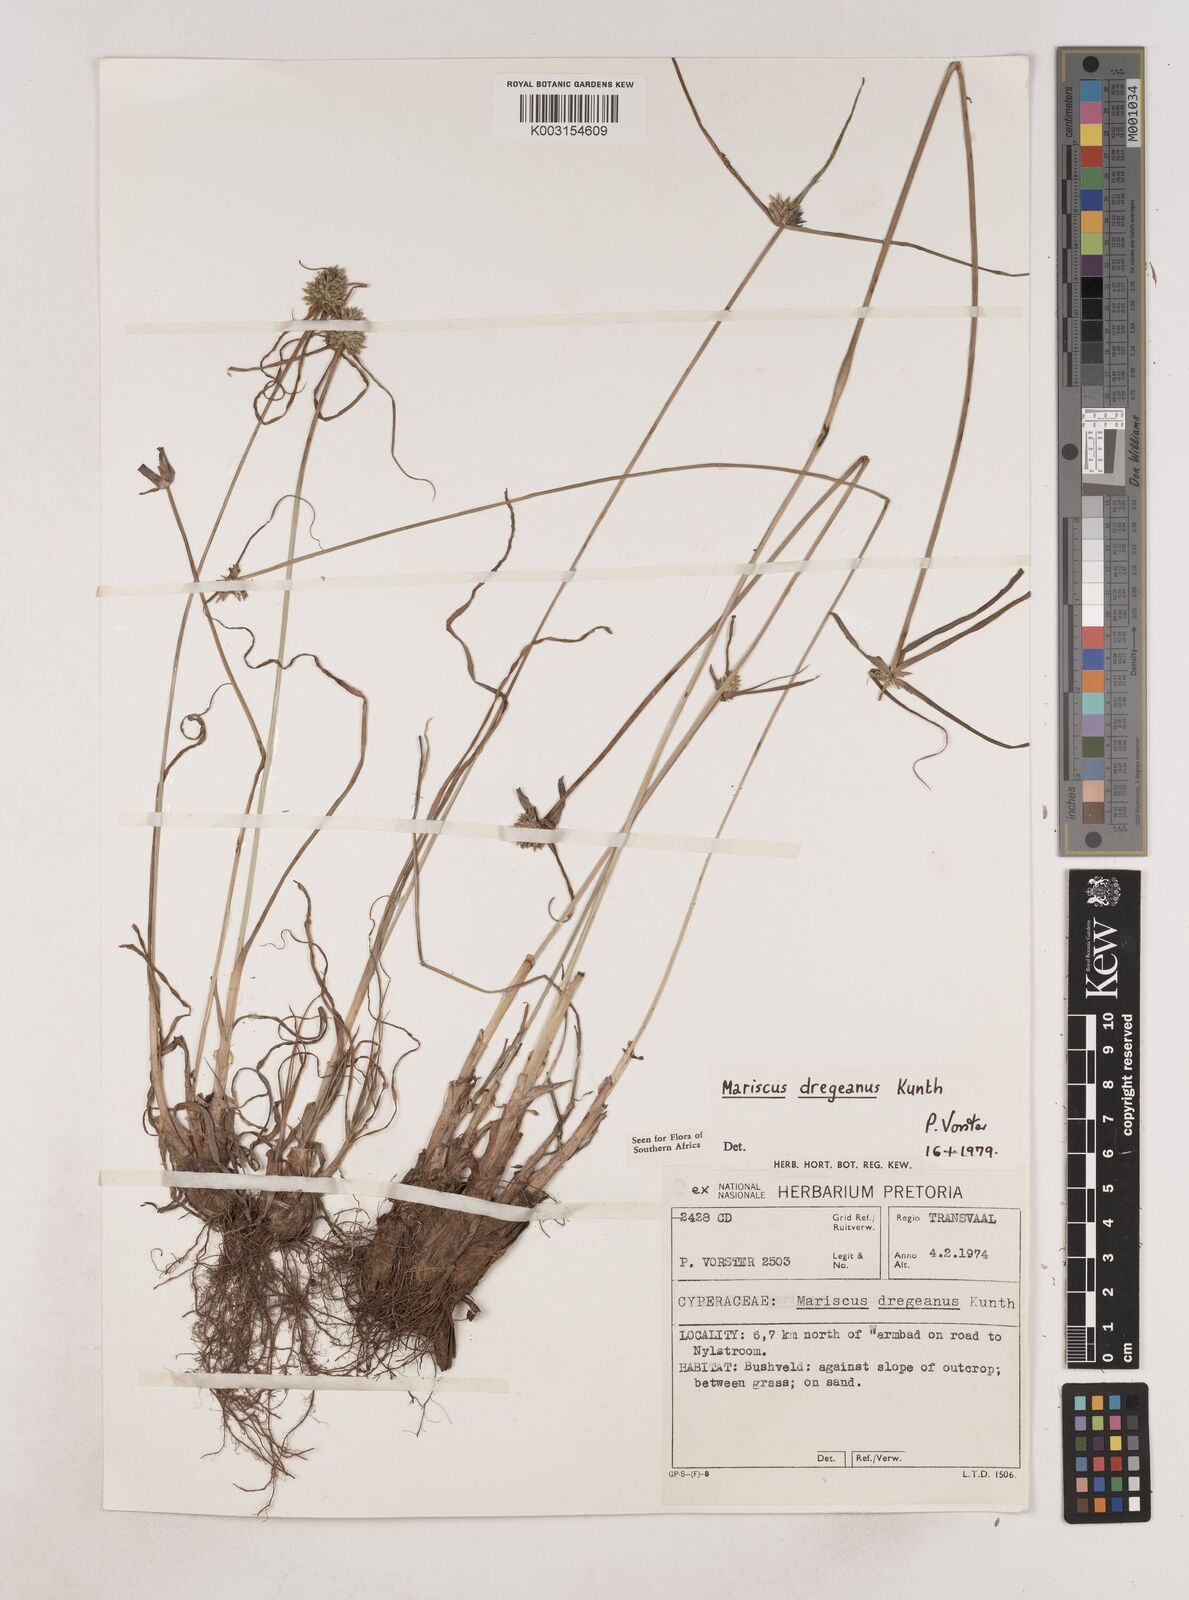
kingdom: Plantae
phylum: Tracheophyta
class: Liliopsida
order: Poales
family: Cyperaceae
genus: Cyperus
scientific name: Cyperus dubius
